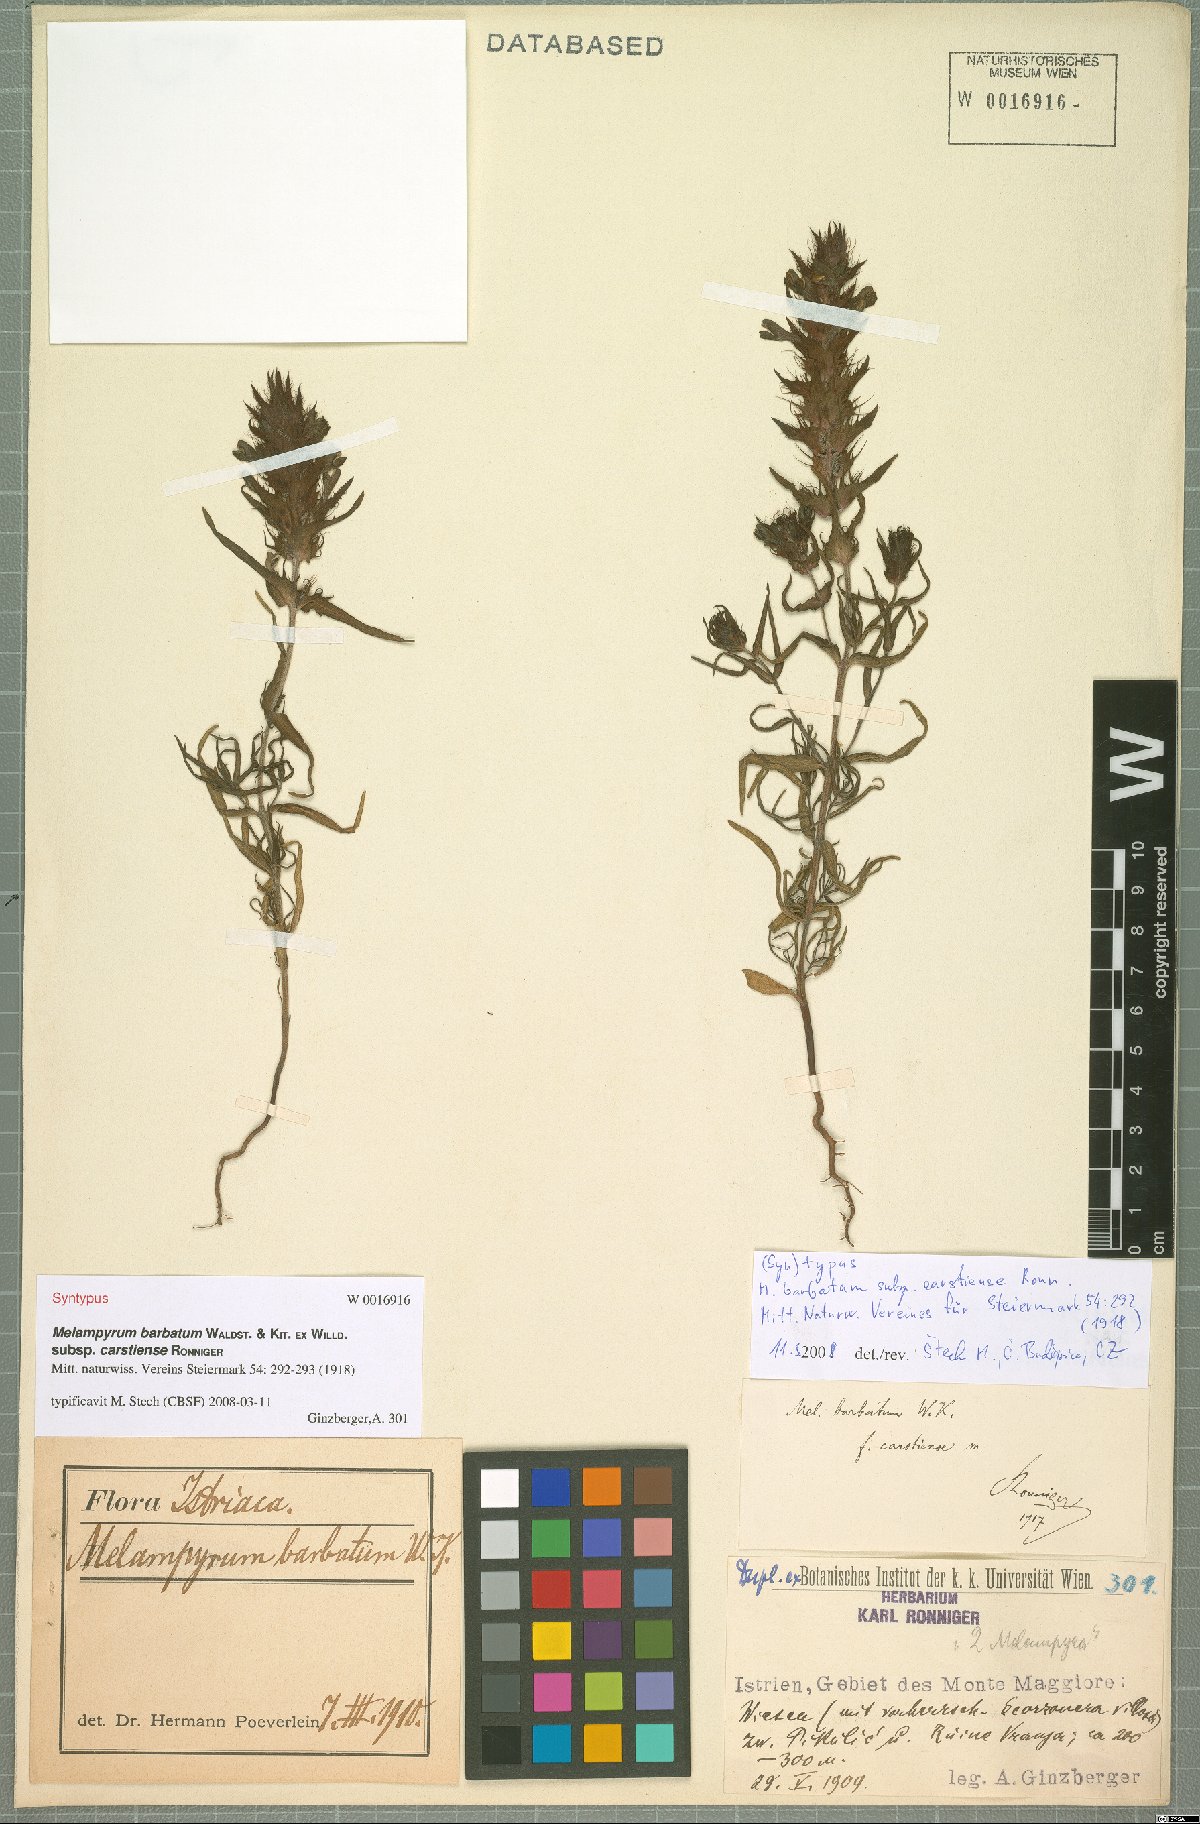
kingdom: Plantae
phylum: Tracheophyta
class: Magnoliopsida
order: Lamiales
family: Orobanchaceae
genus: Melampyrum
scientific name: Melampyrum barbatum
